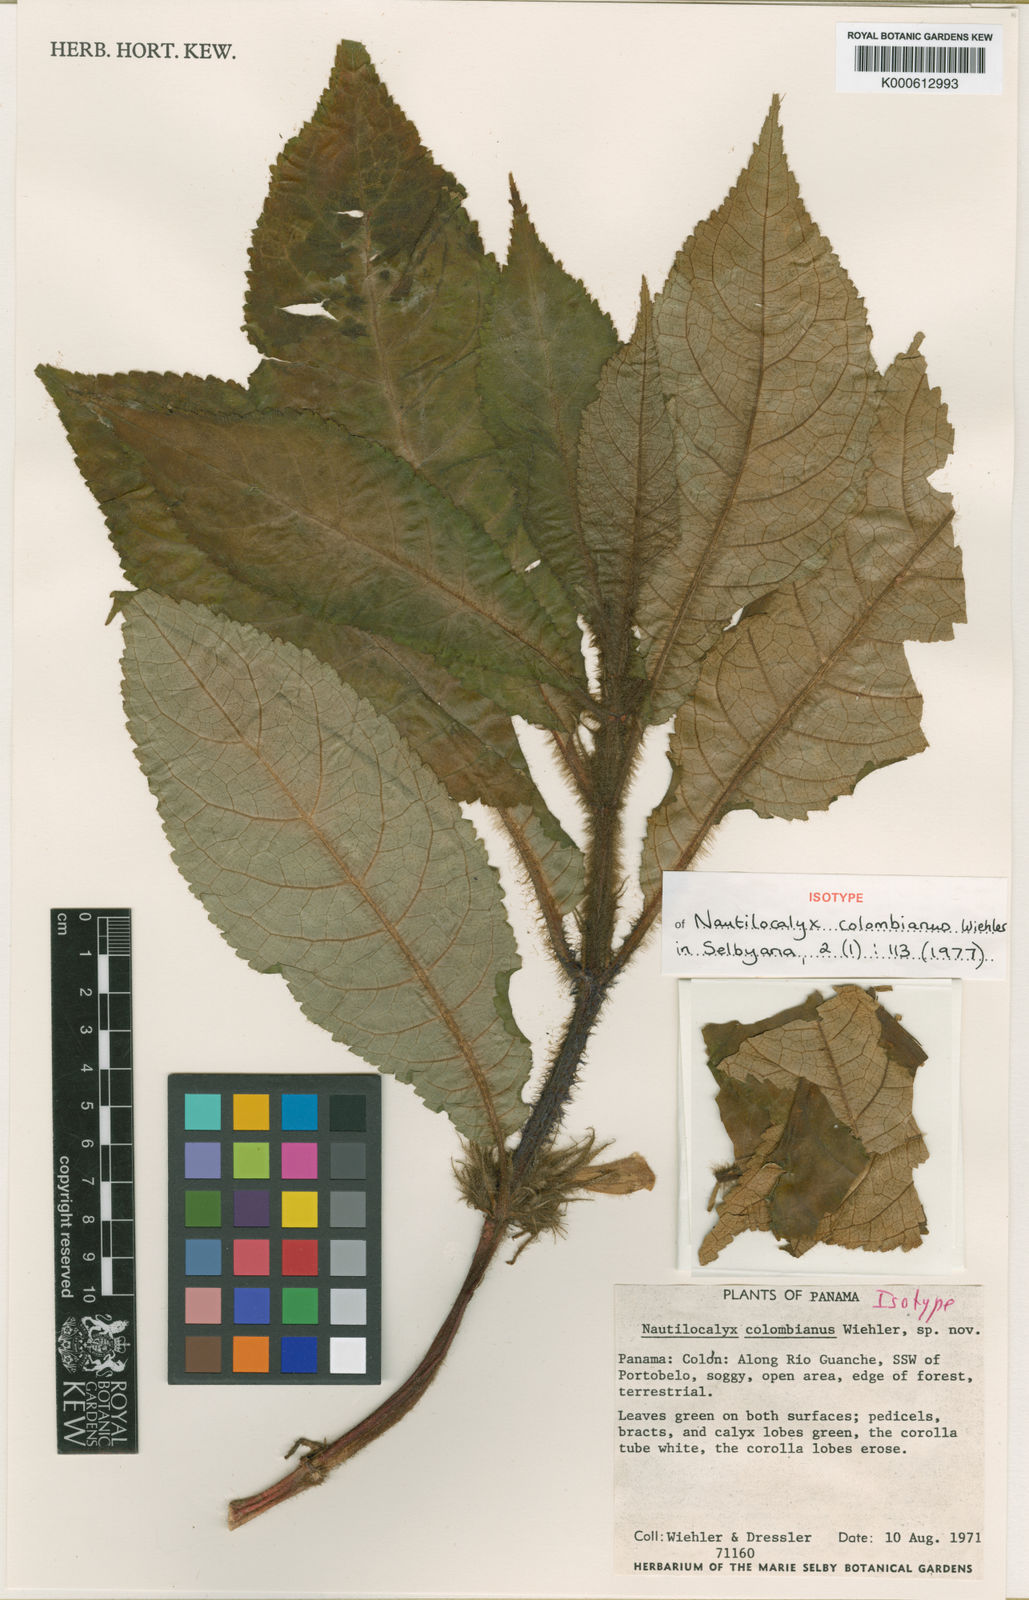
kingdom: Plantae
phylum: Tracheophyta
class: Magnoliopsida
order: Lamiales
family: Gesneriaceae
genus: Nautilocalyx
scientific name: Nautilocalyx colombianus
